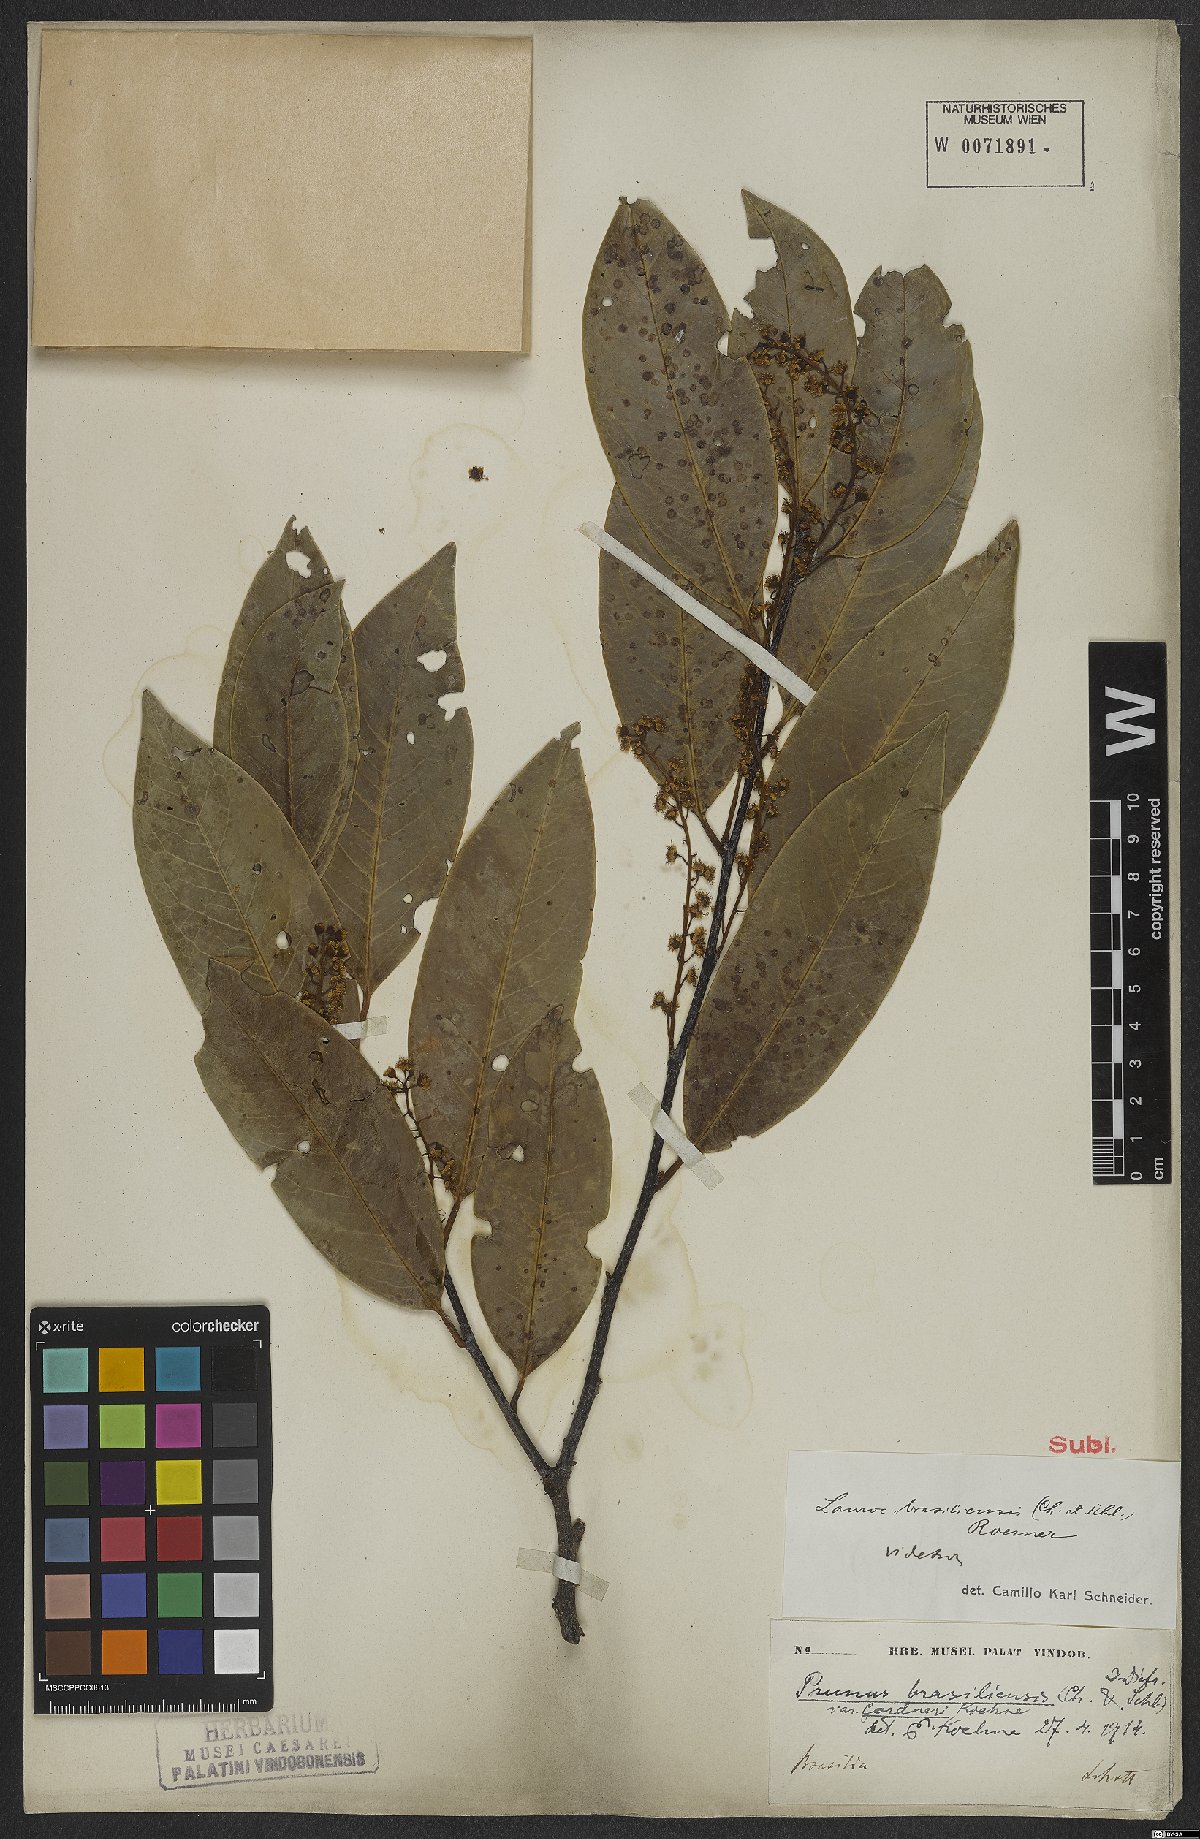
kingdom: Plantae
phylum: Tracheophyta
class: Magnoliopsida
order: Rosales
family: Rosaceae
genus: Prunus
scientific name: Prunus brasiliensis
